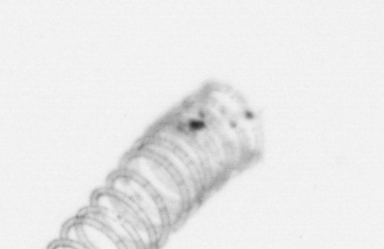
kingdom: Chromista
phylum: Ochrophyta
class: Bacillariophyceae
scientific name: Bacillariophyceae
